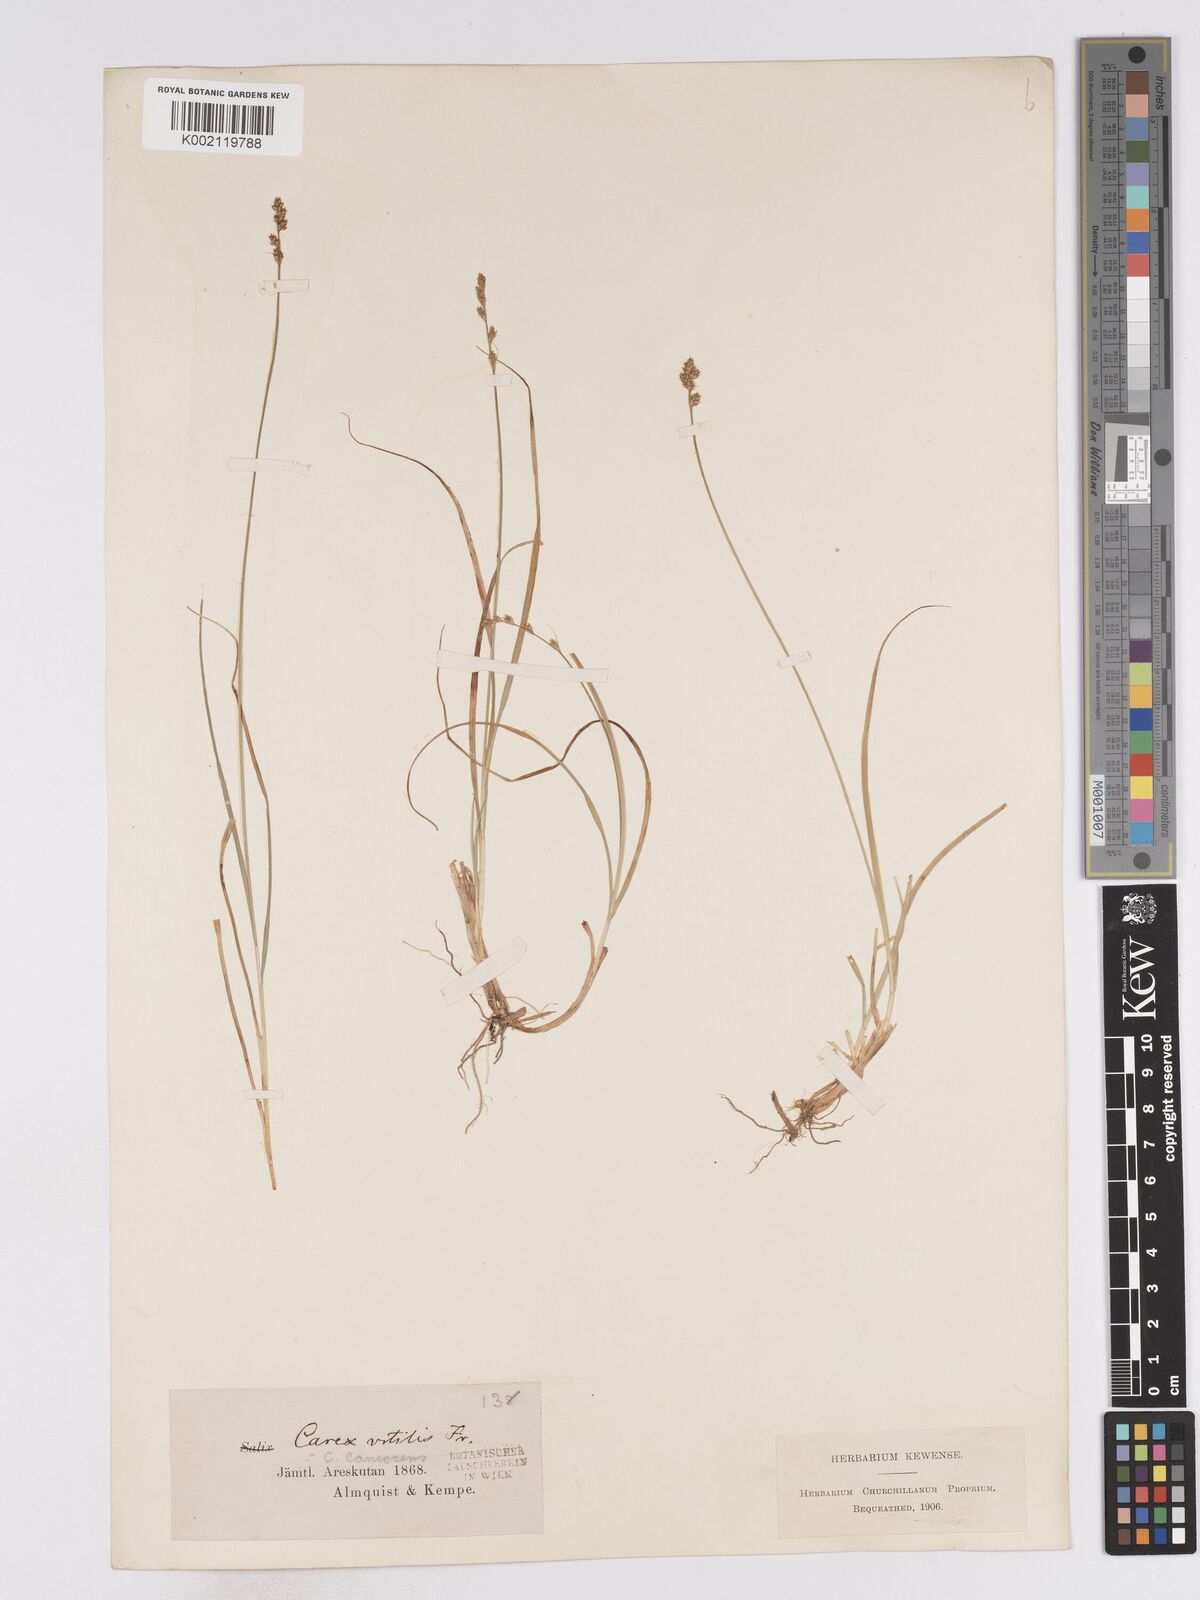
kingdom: Plantae
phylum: Tracheophyta
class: Liliopsida
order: Poales
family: Cyperaceae
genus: Carex
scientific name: Carex curta
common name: White sedge
